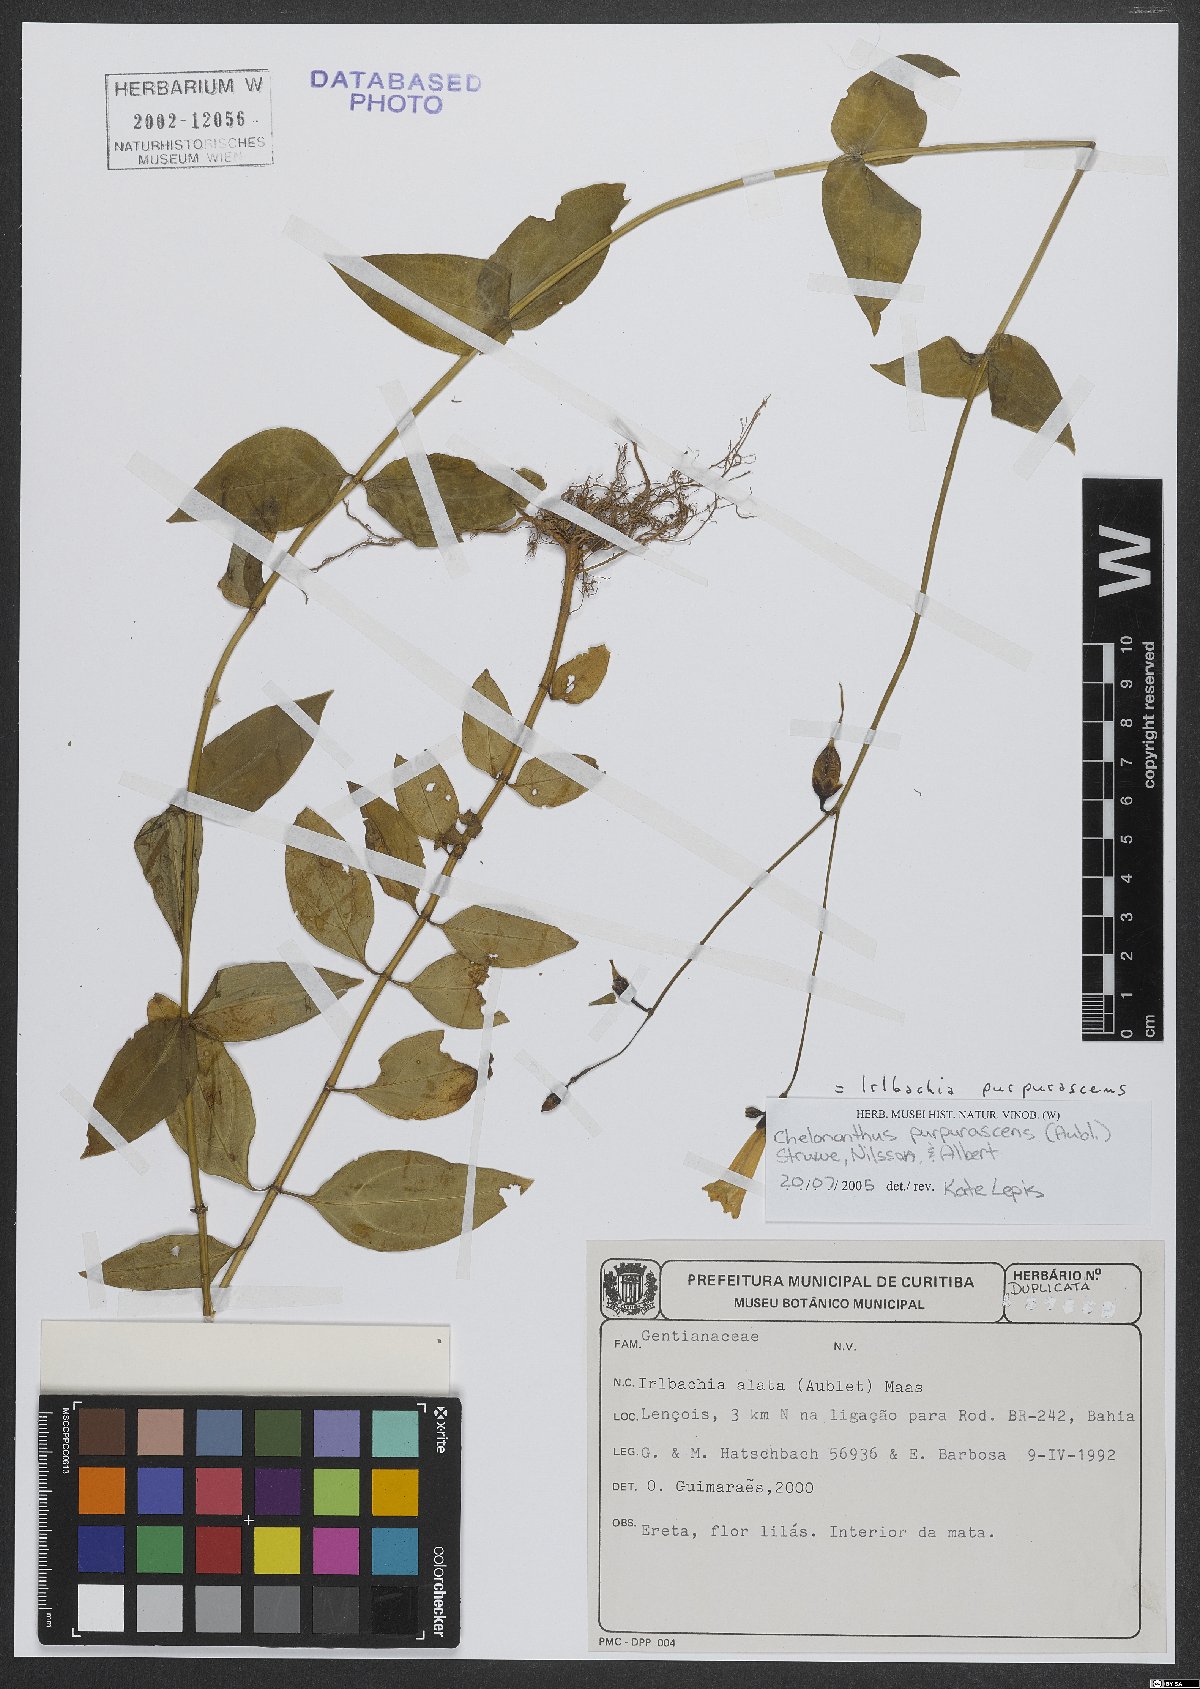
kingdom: Plantae
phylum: Tracheophyta
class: Magnoliopsida
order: Gentianales
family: Gentianaceae
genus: Chelonanthus
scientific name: Chelonanthus purpurascens
